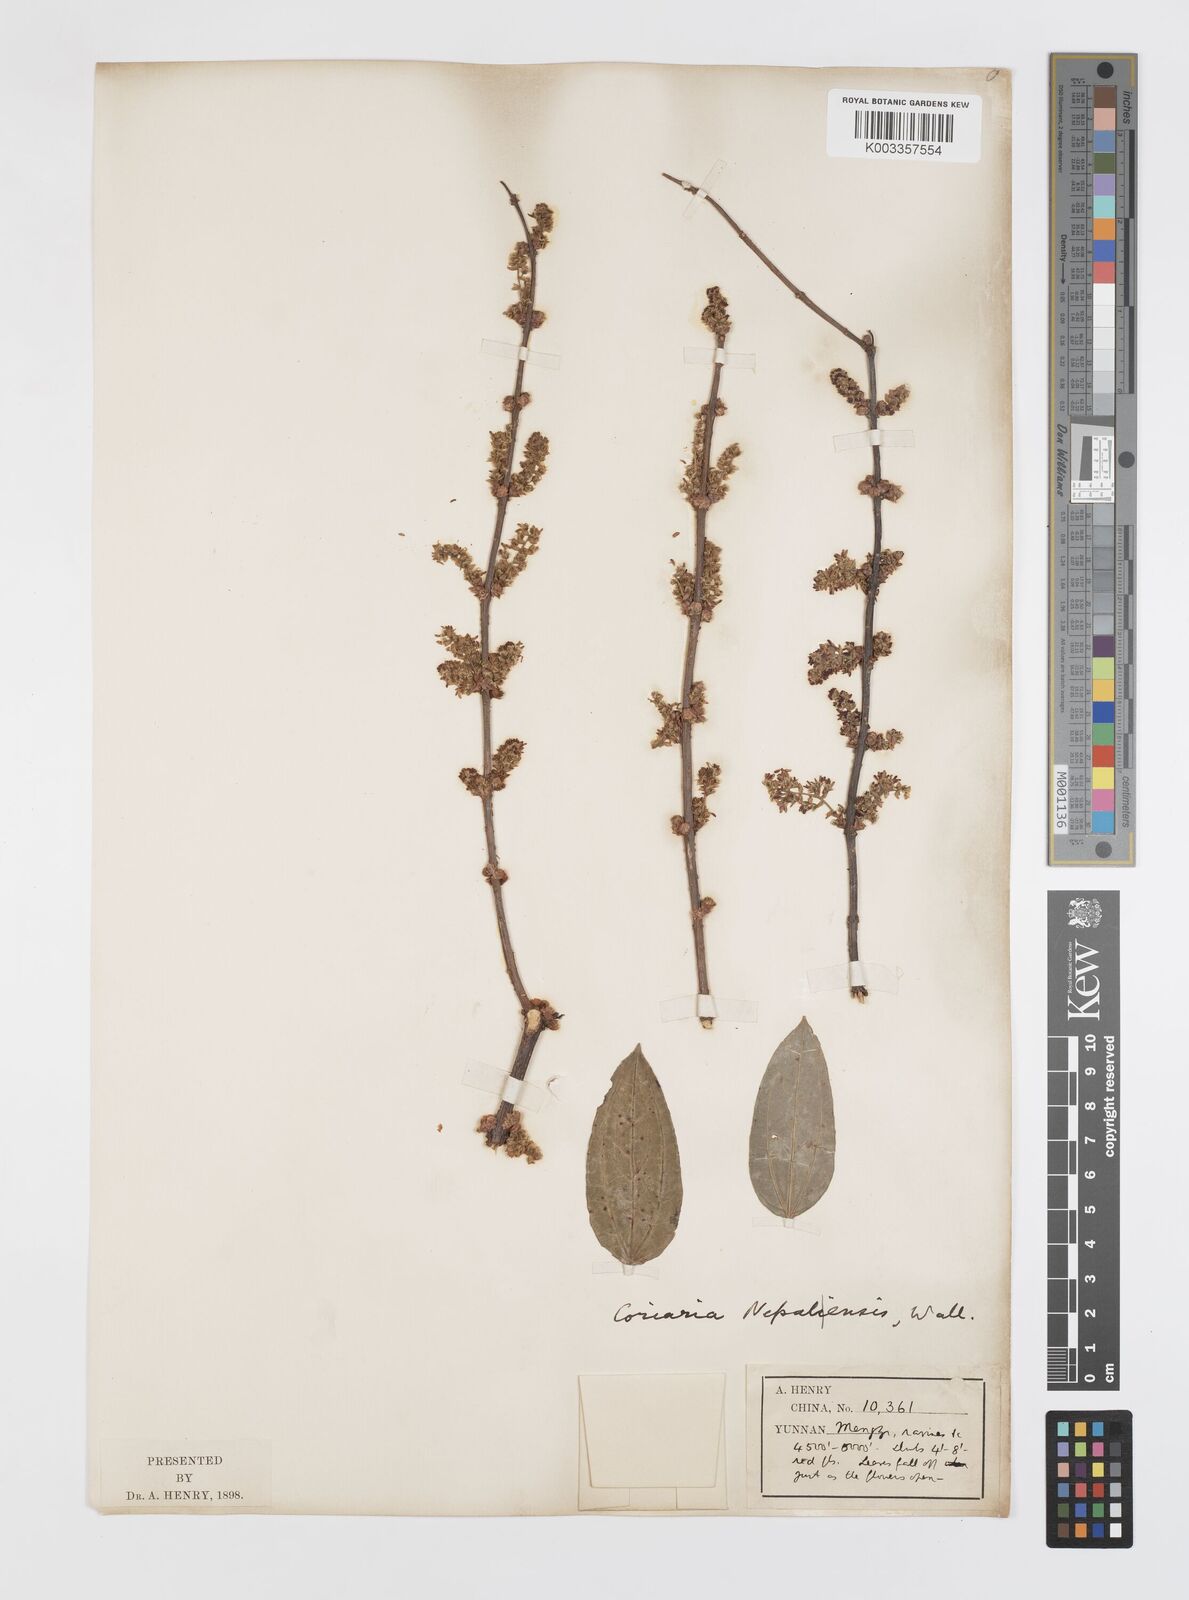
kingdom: Plantae
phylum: Tracheophyta
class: Magnoliopsida
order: Cucurbitales
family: Coriariaceae
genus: Coriaria
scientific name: Coriaria napalensis
